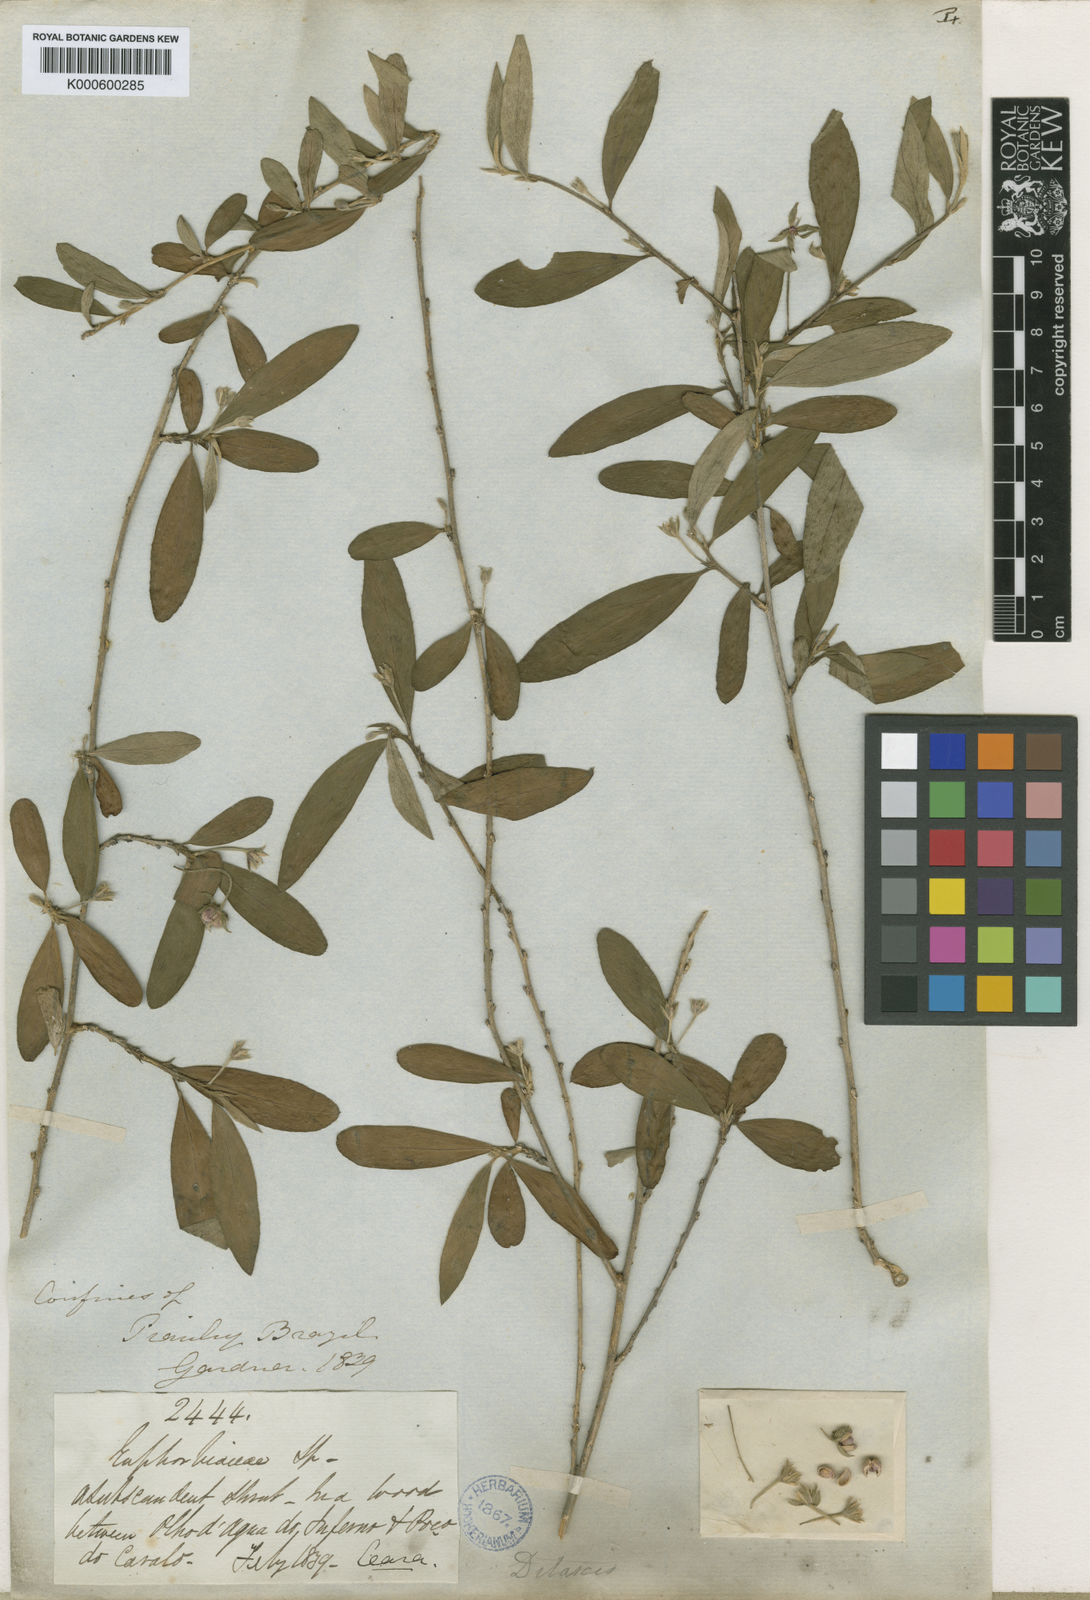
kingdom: Plantae
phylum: Tracheophyta
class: Magnoliopsida
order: Malpighiales
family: Euphorbiaceae
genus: Ditaxis
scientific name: Ditaxis
